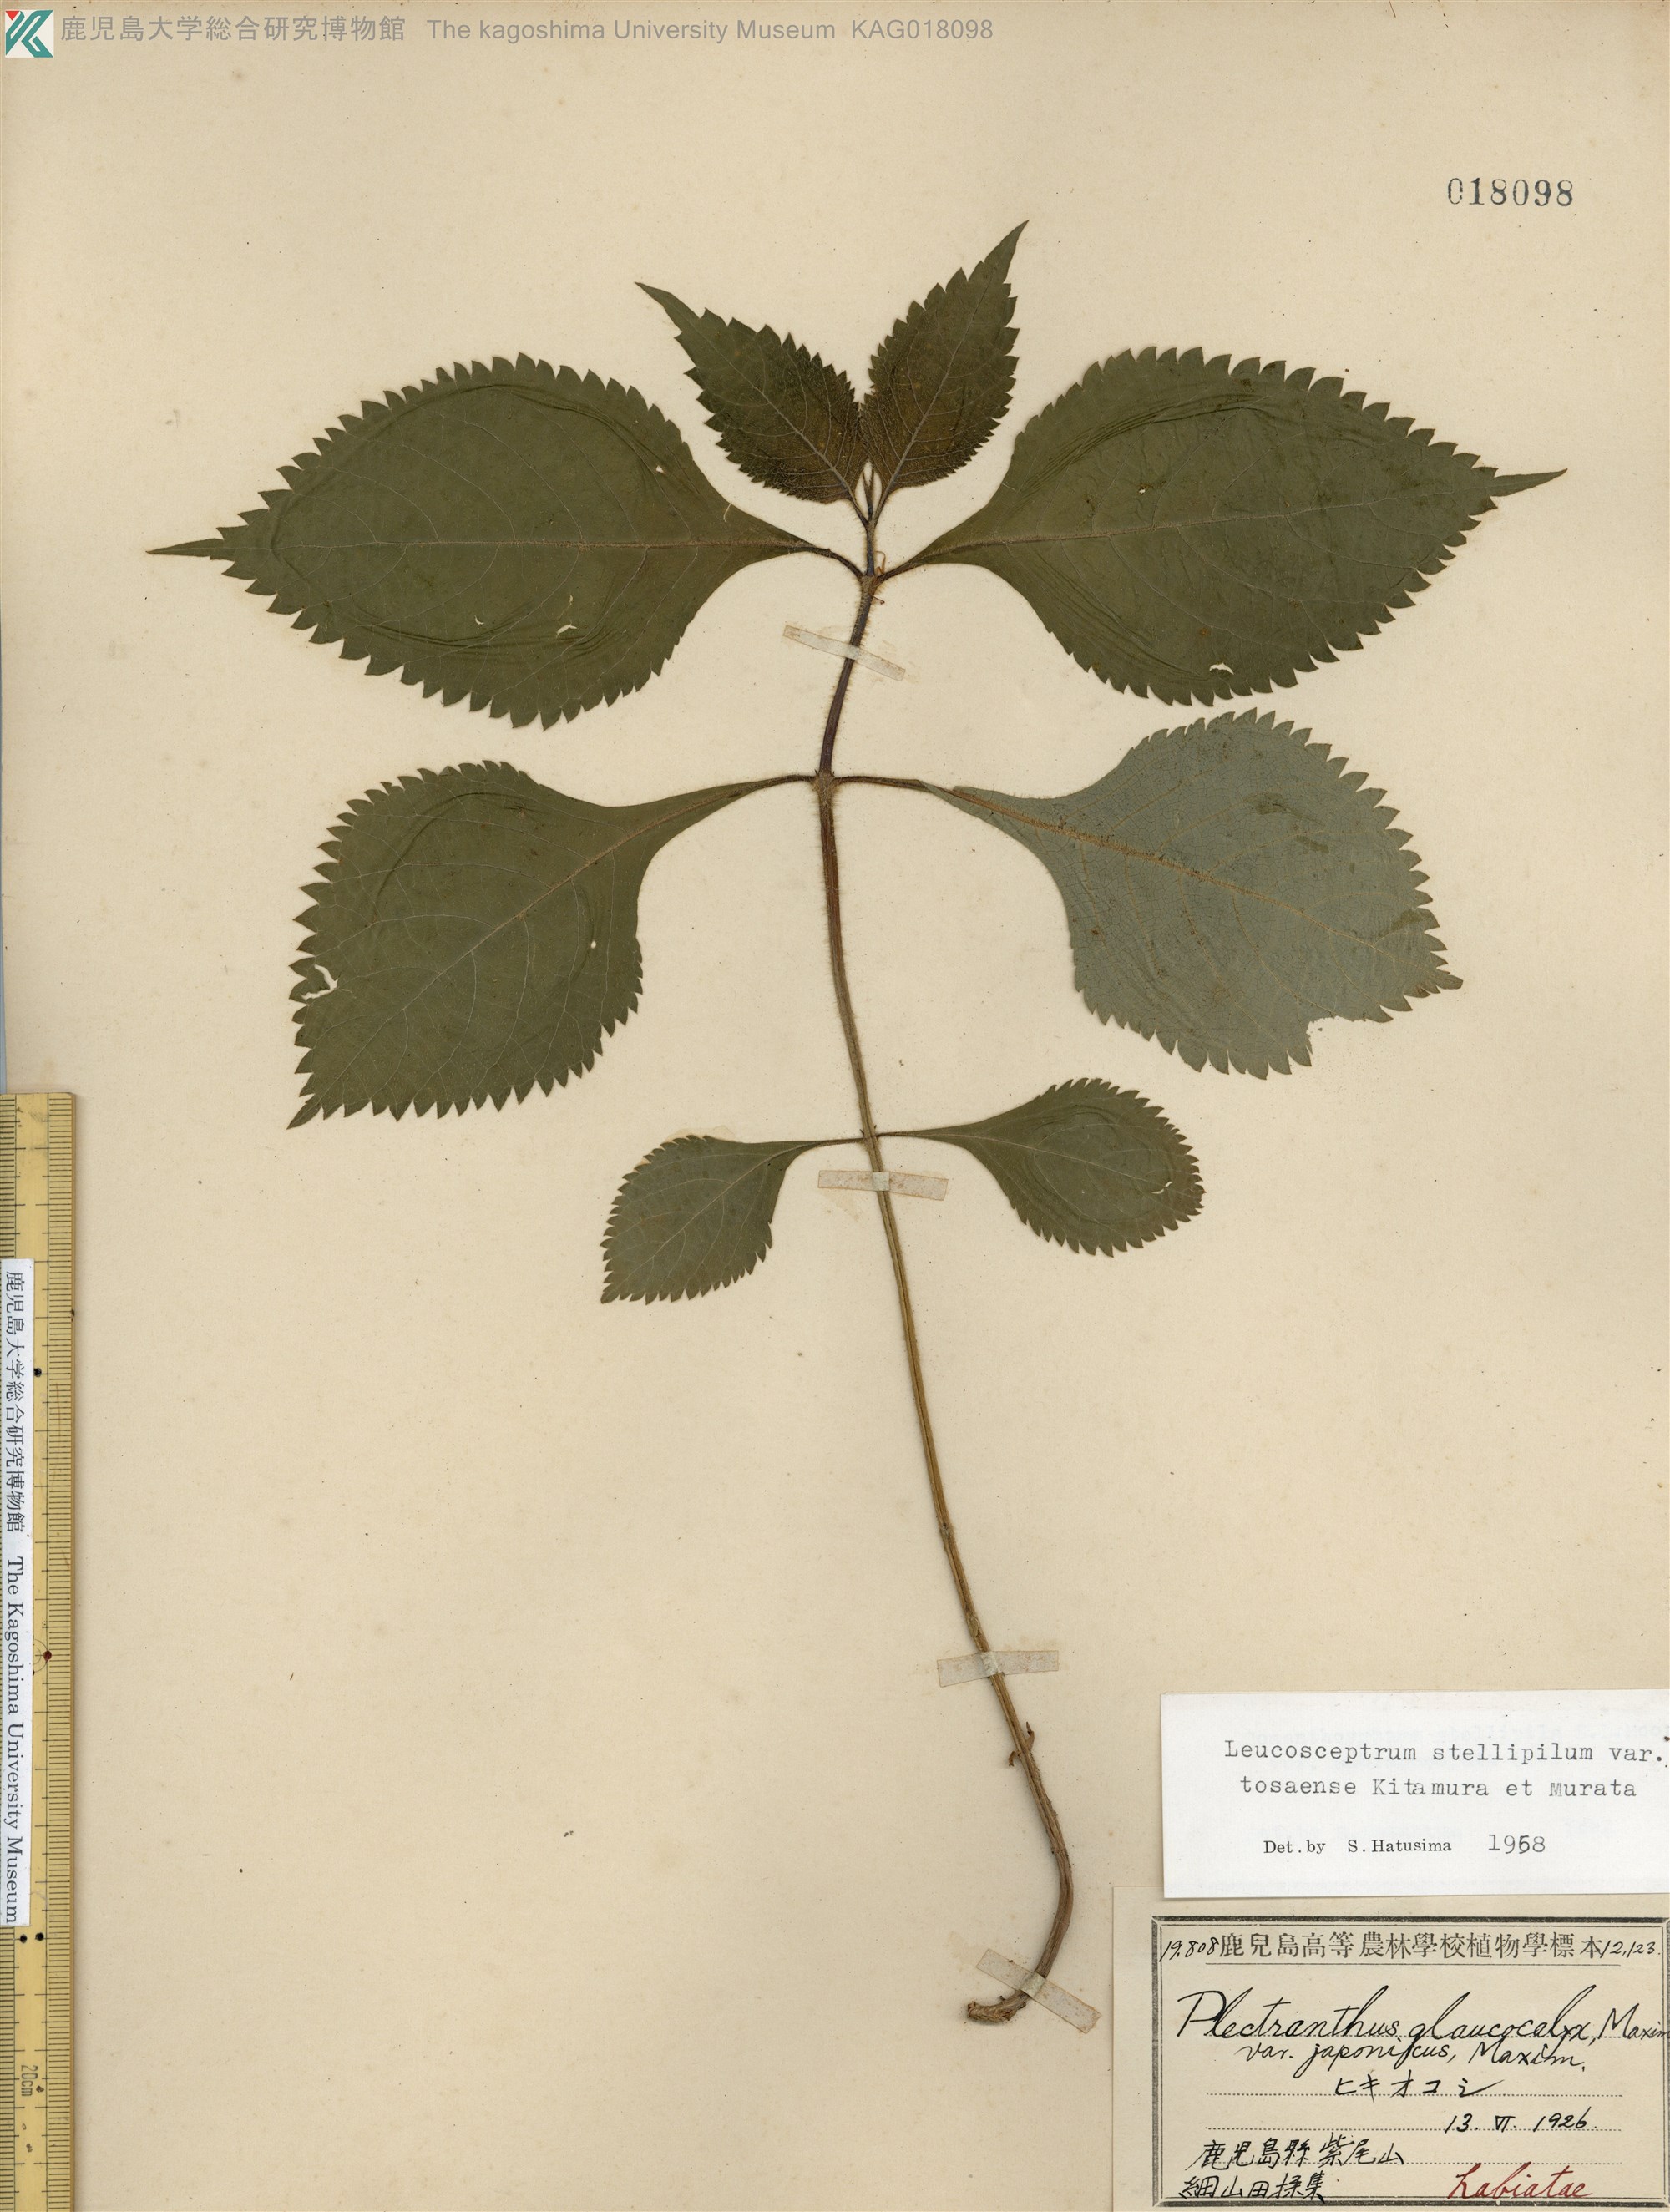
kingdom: Plantae
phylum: Tracheophyta
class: Magnoliopsida
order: Lamiales
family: Lamiaceae
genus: Comanthosphace
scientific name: Comanthosphace japonica
